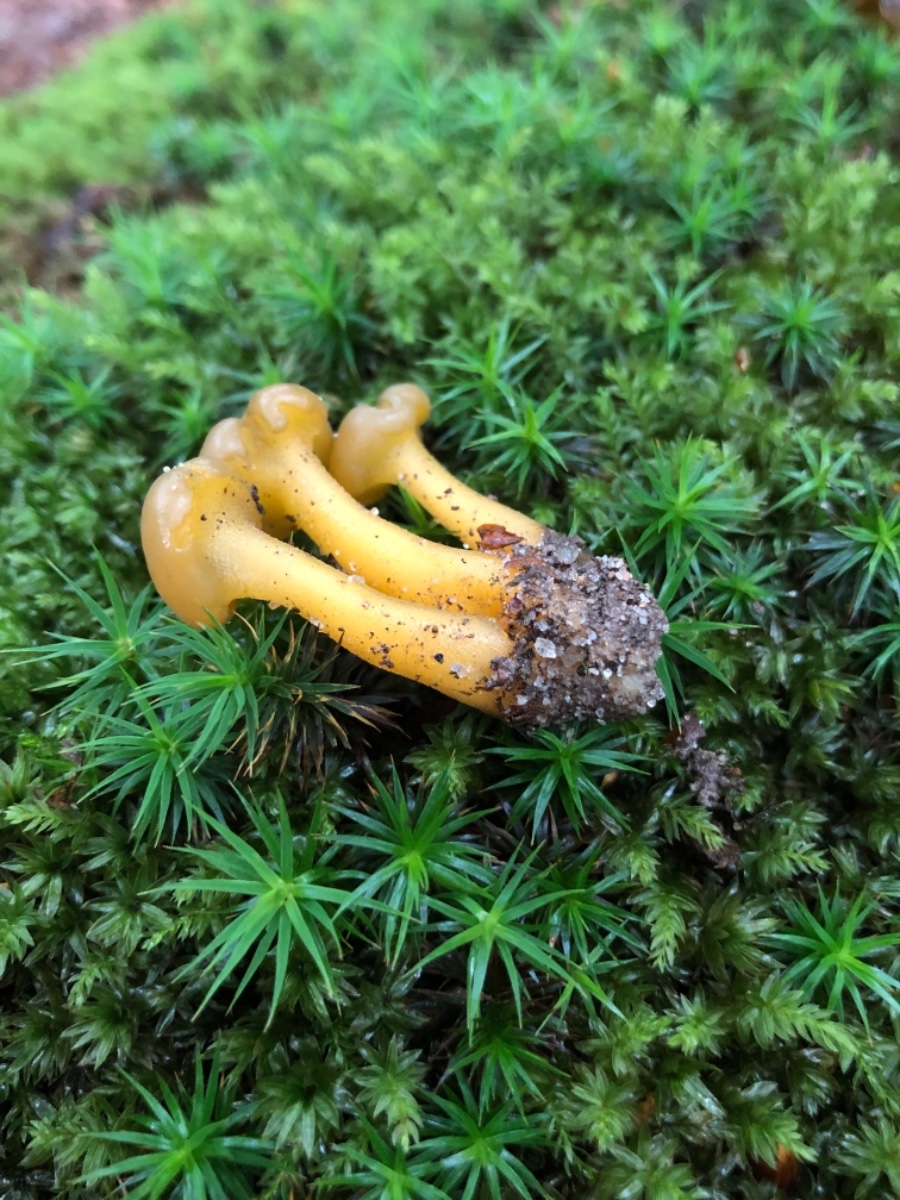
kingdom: Fungi
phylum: Ascomycota
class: Leotiomycetes
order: Leotiales
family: Leotiaceae
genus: Leotia
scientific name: Leotia lubrica
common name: ravsvamp
